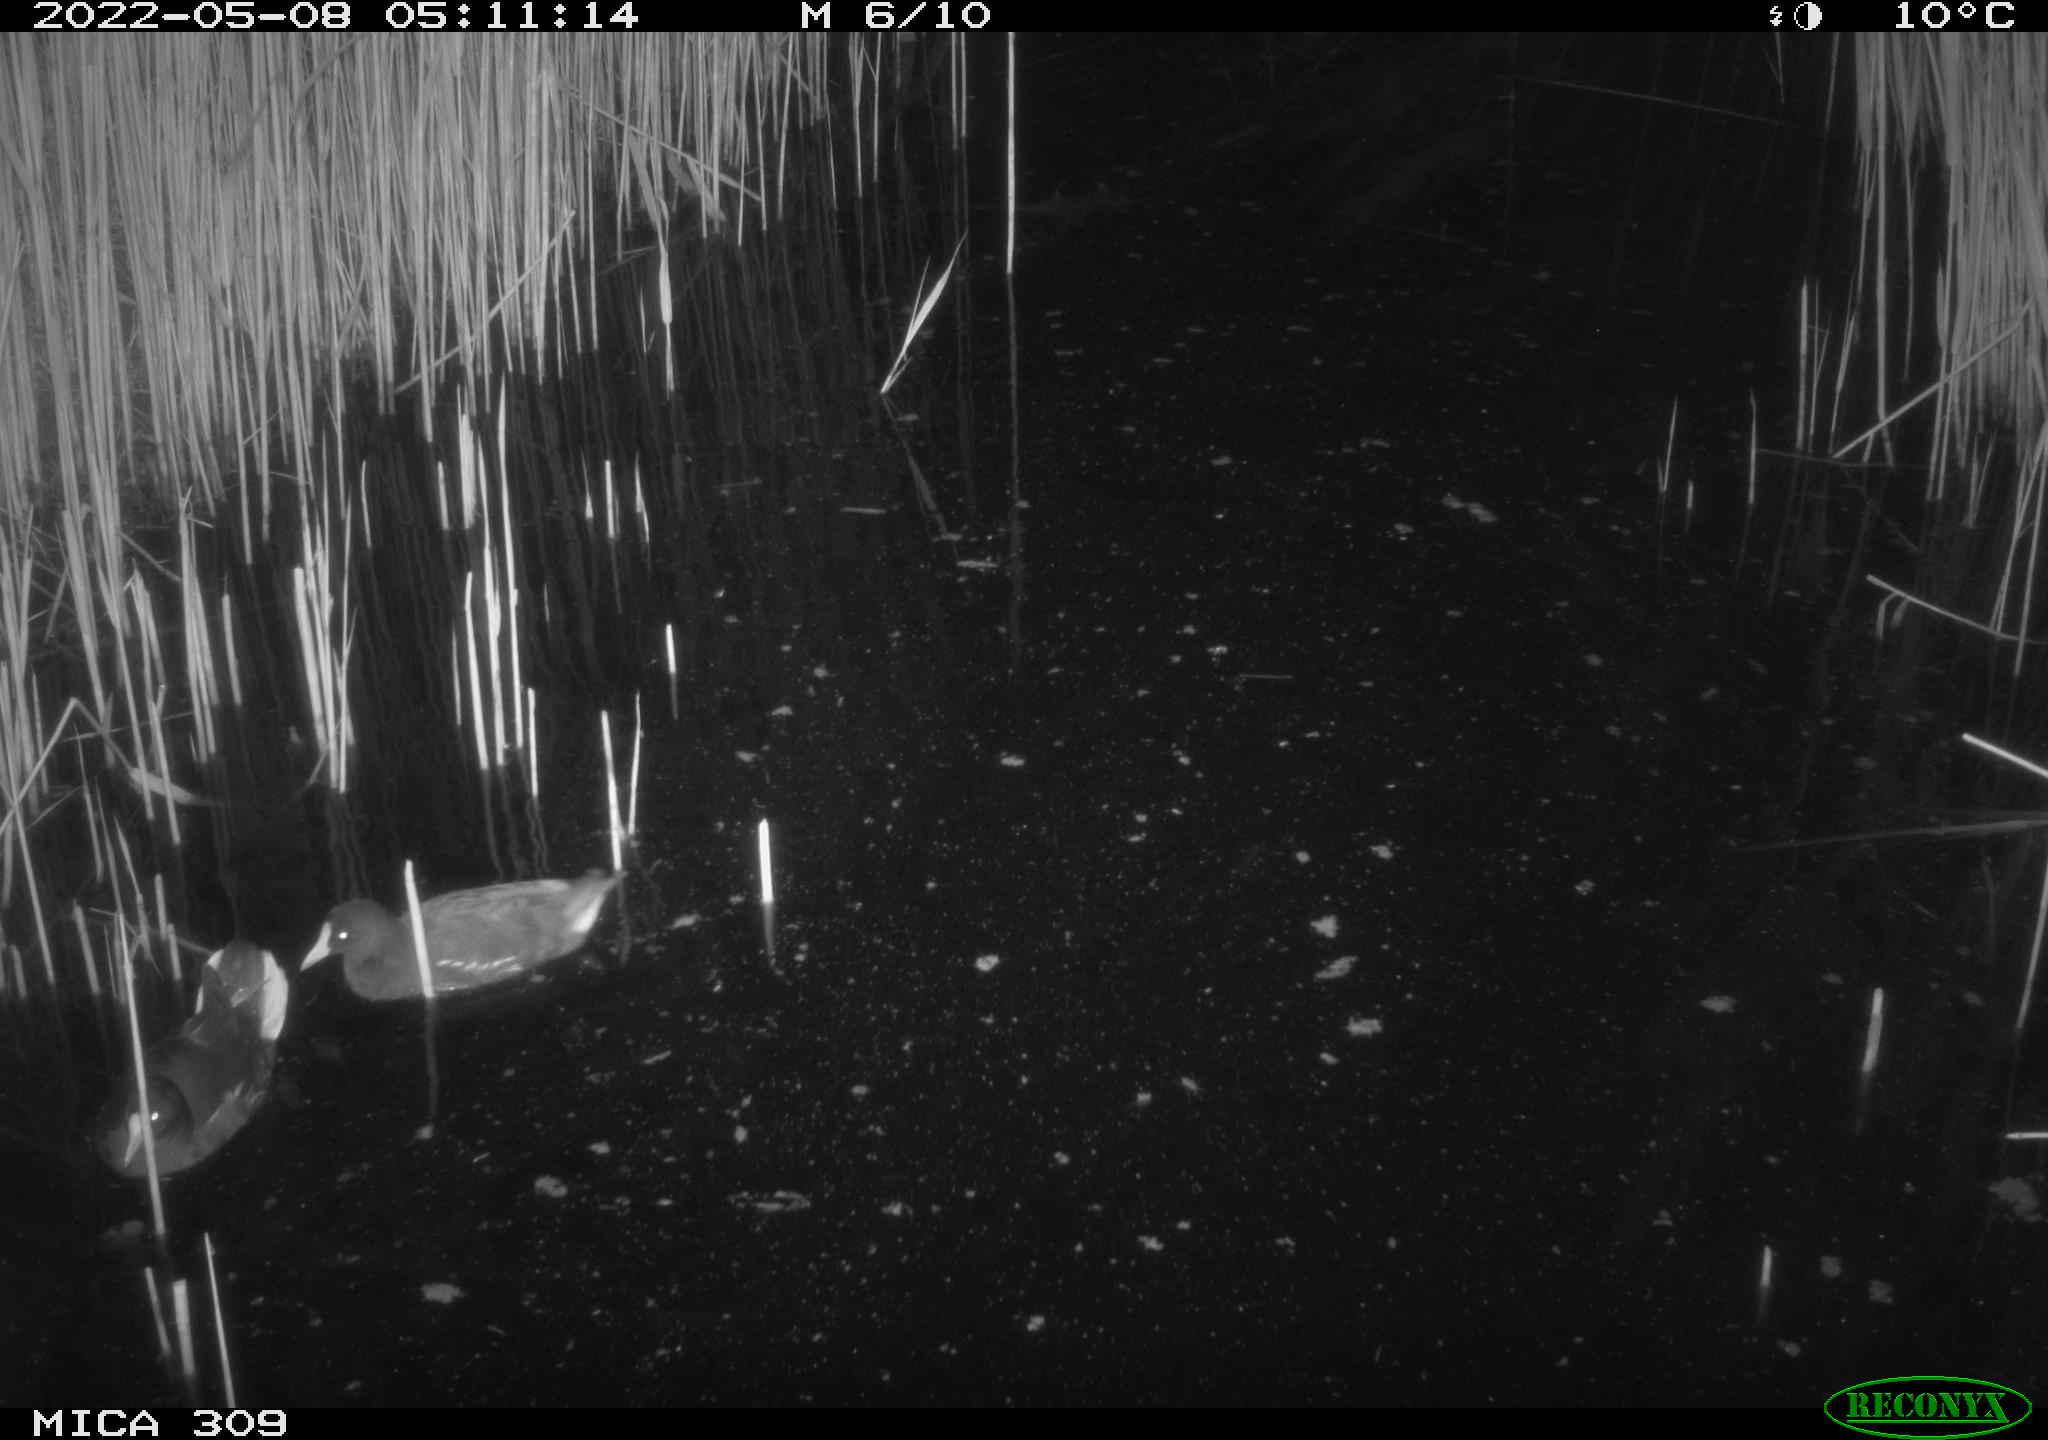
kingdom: Animalia
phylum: Chordata
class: Aves
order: Gruiformes
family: Rallidae
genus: Gallinula
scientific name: Gallinula chloropus
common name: Common moorhen
